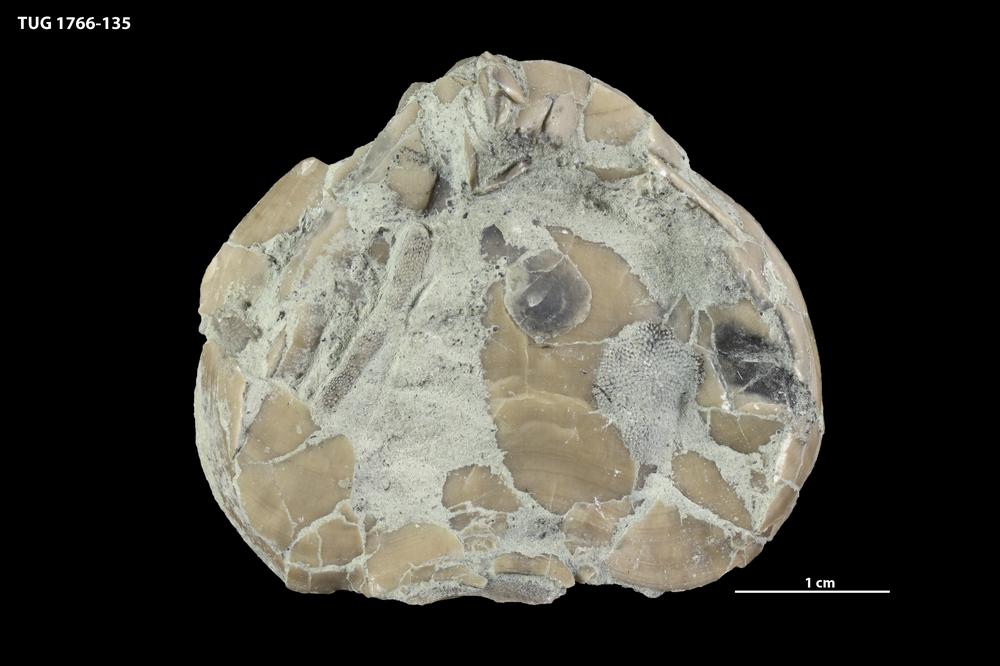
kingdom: Animalia
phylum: Brachiopoda
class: Rhynchonellata
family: Porambonitidae
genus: Porambonites
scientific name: Porambonites
